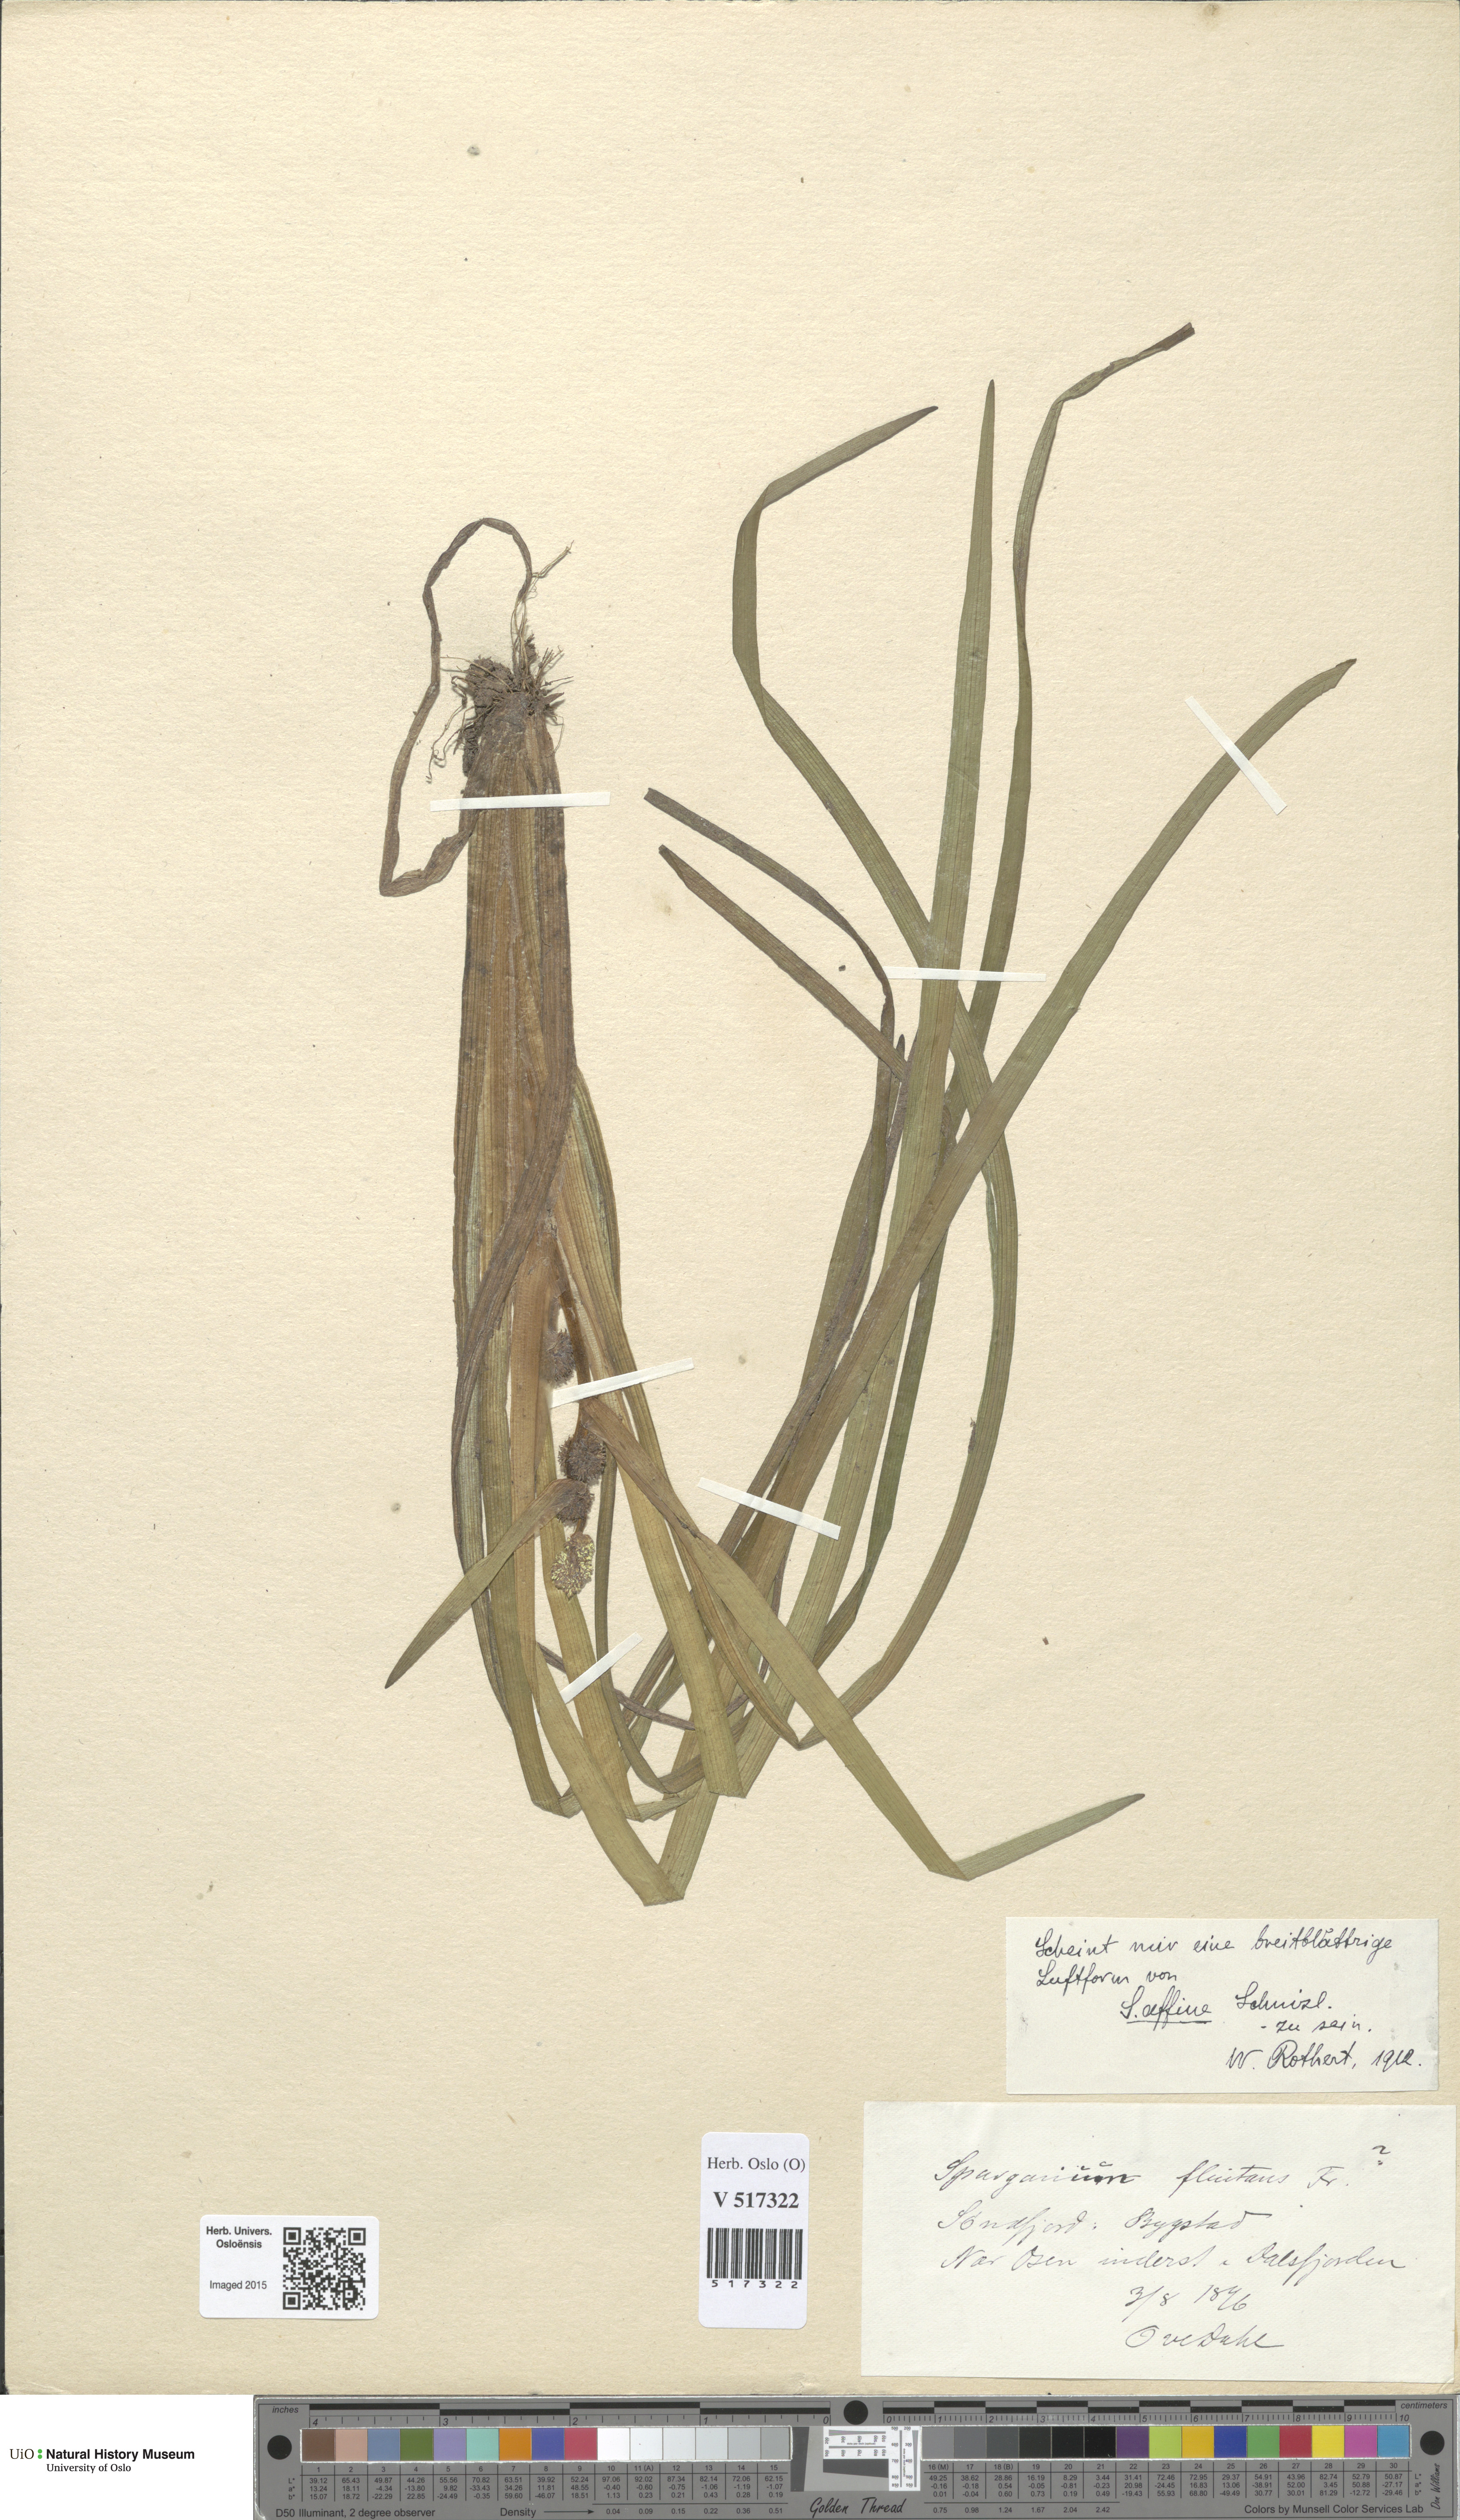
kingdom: Plantae
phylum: Tracheophyta
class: Liliopsida
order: Poales
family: Typhaceae
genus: Sparganium
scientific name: Sparganium angustifolium
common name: Floating bur-reed
